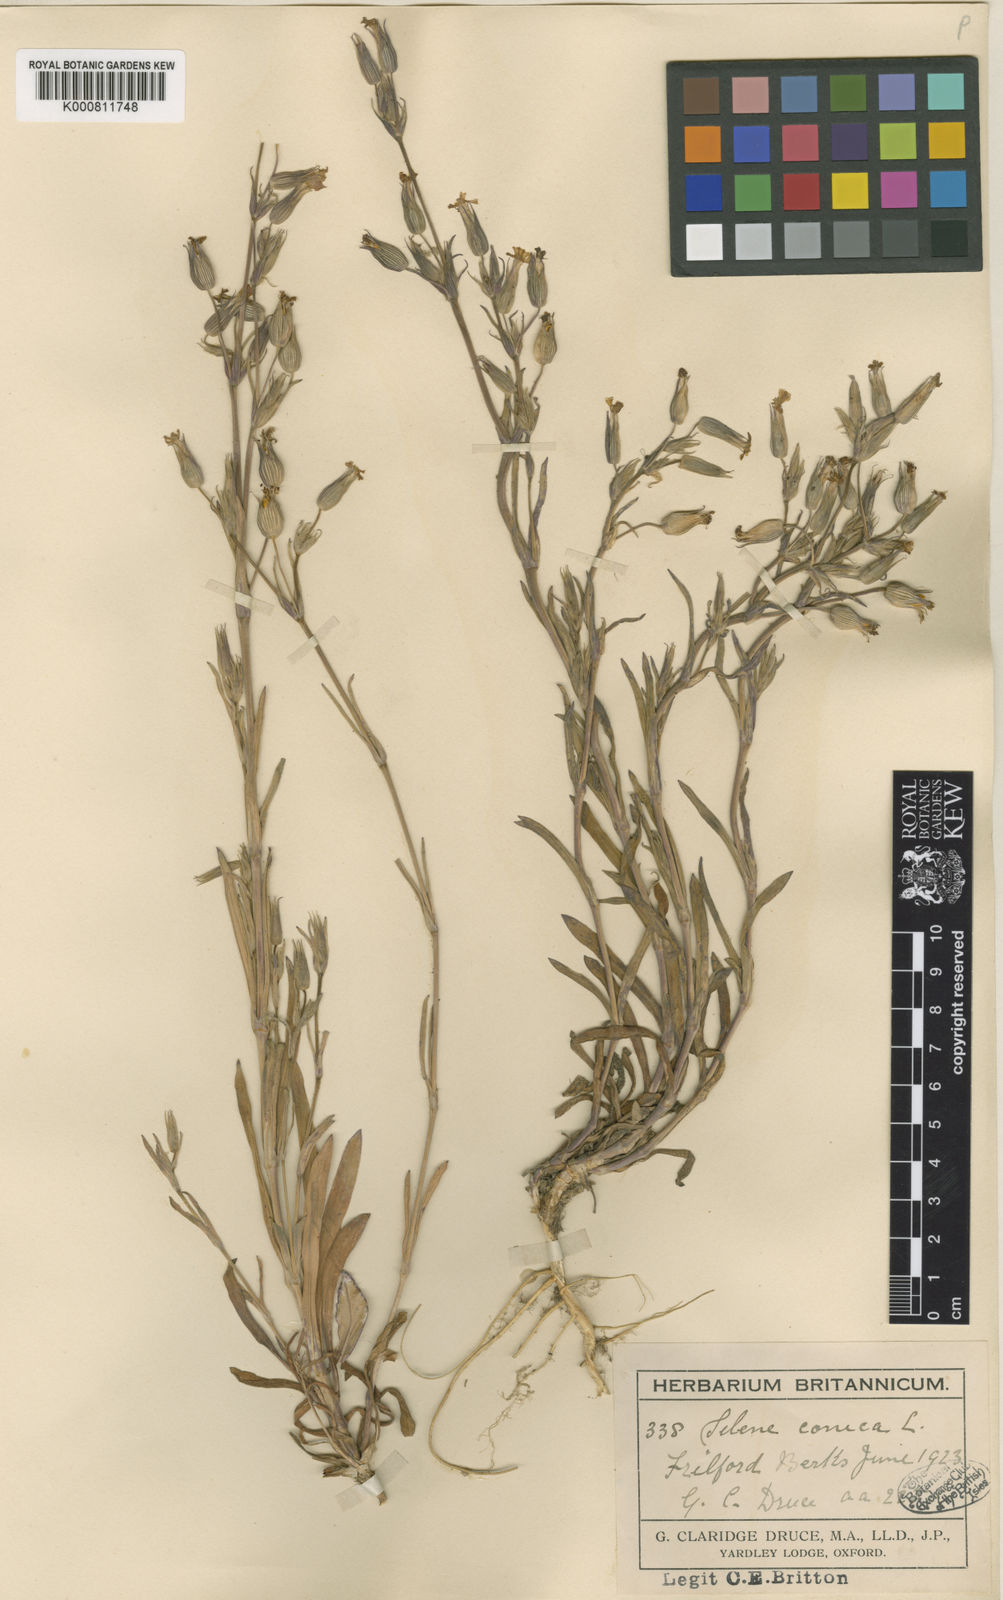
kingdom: Plantae
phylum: Tracheophyta
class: Magnoliopsida
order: Caryophyllales
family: Caryophyllaceae
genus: Silene
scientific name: Silene conica
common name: Sand catchfly
